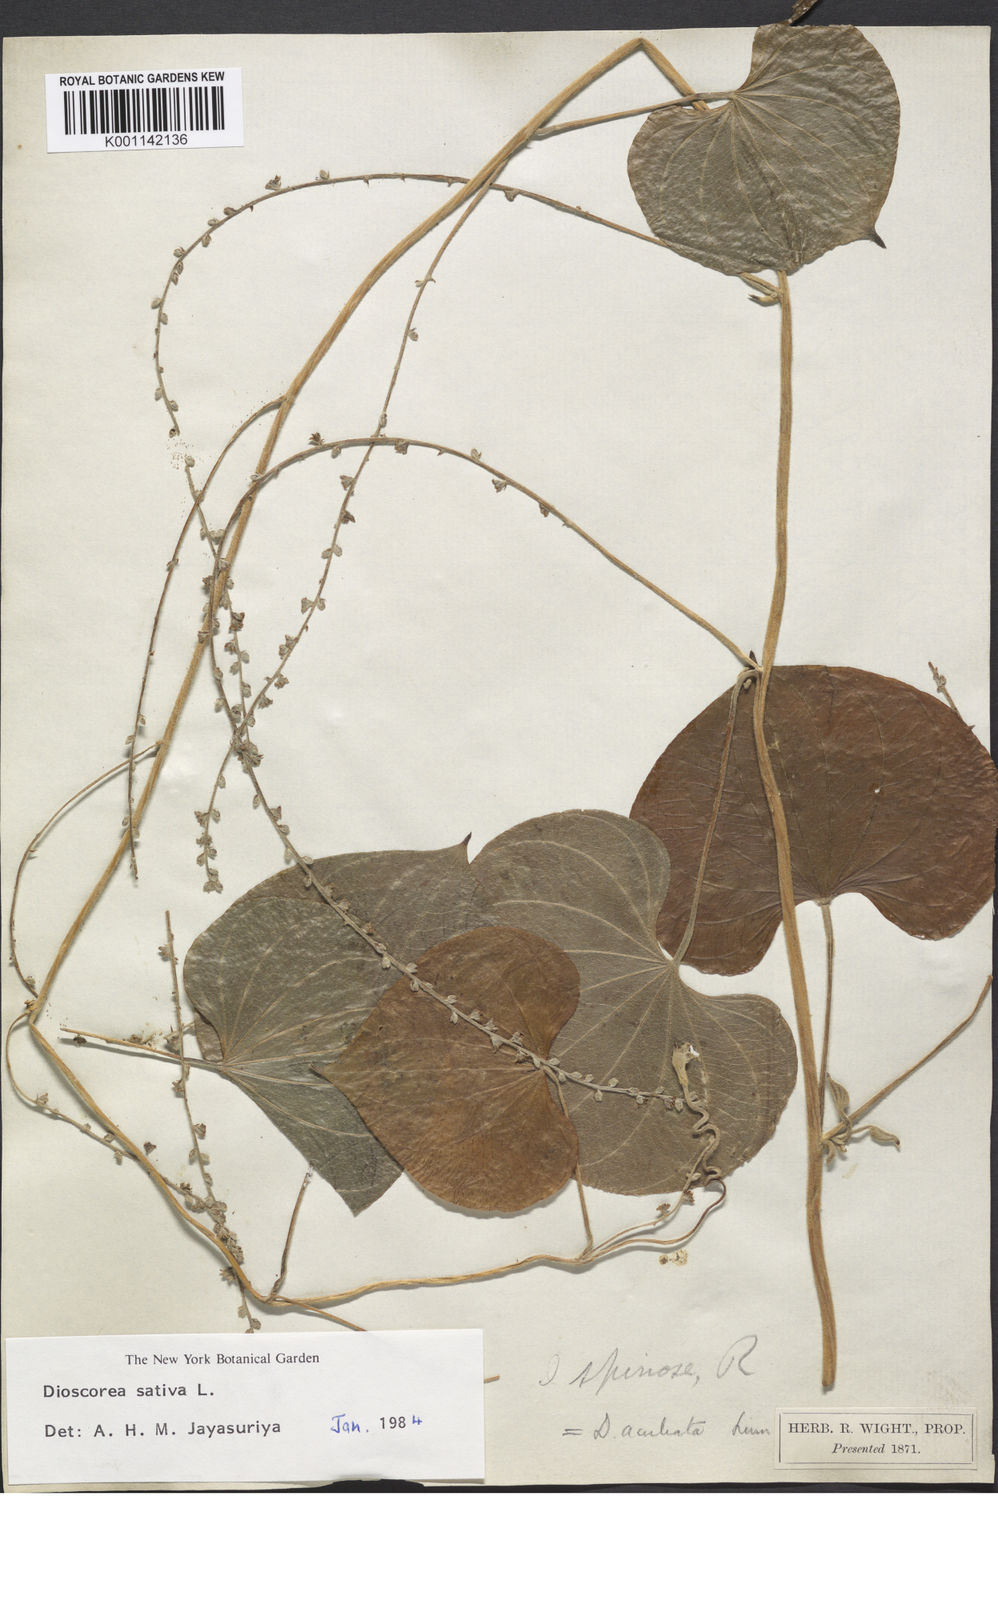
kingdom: Plantae
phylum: Tracheophyta
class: Liliopsida
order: Dioscoreales
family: Dioscoreaceae
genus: Dioscorea
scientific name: Dioscorea esculenta
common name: Chinese yam
